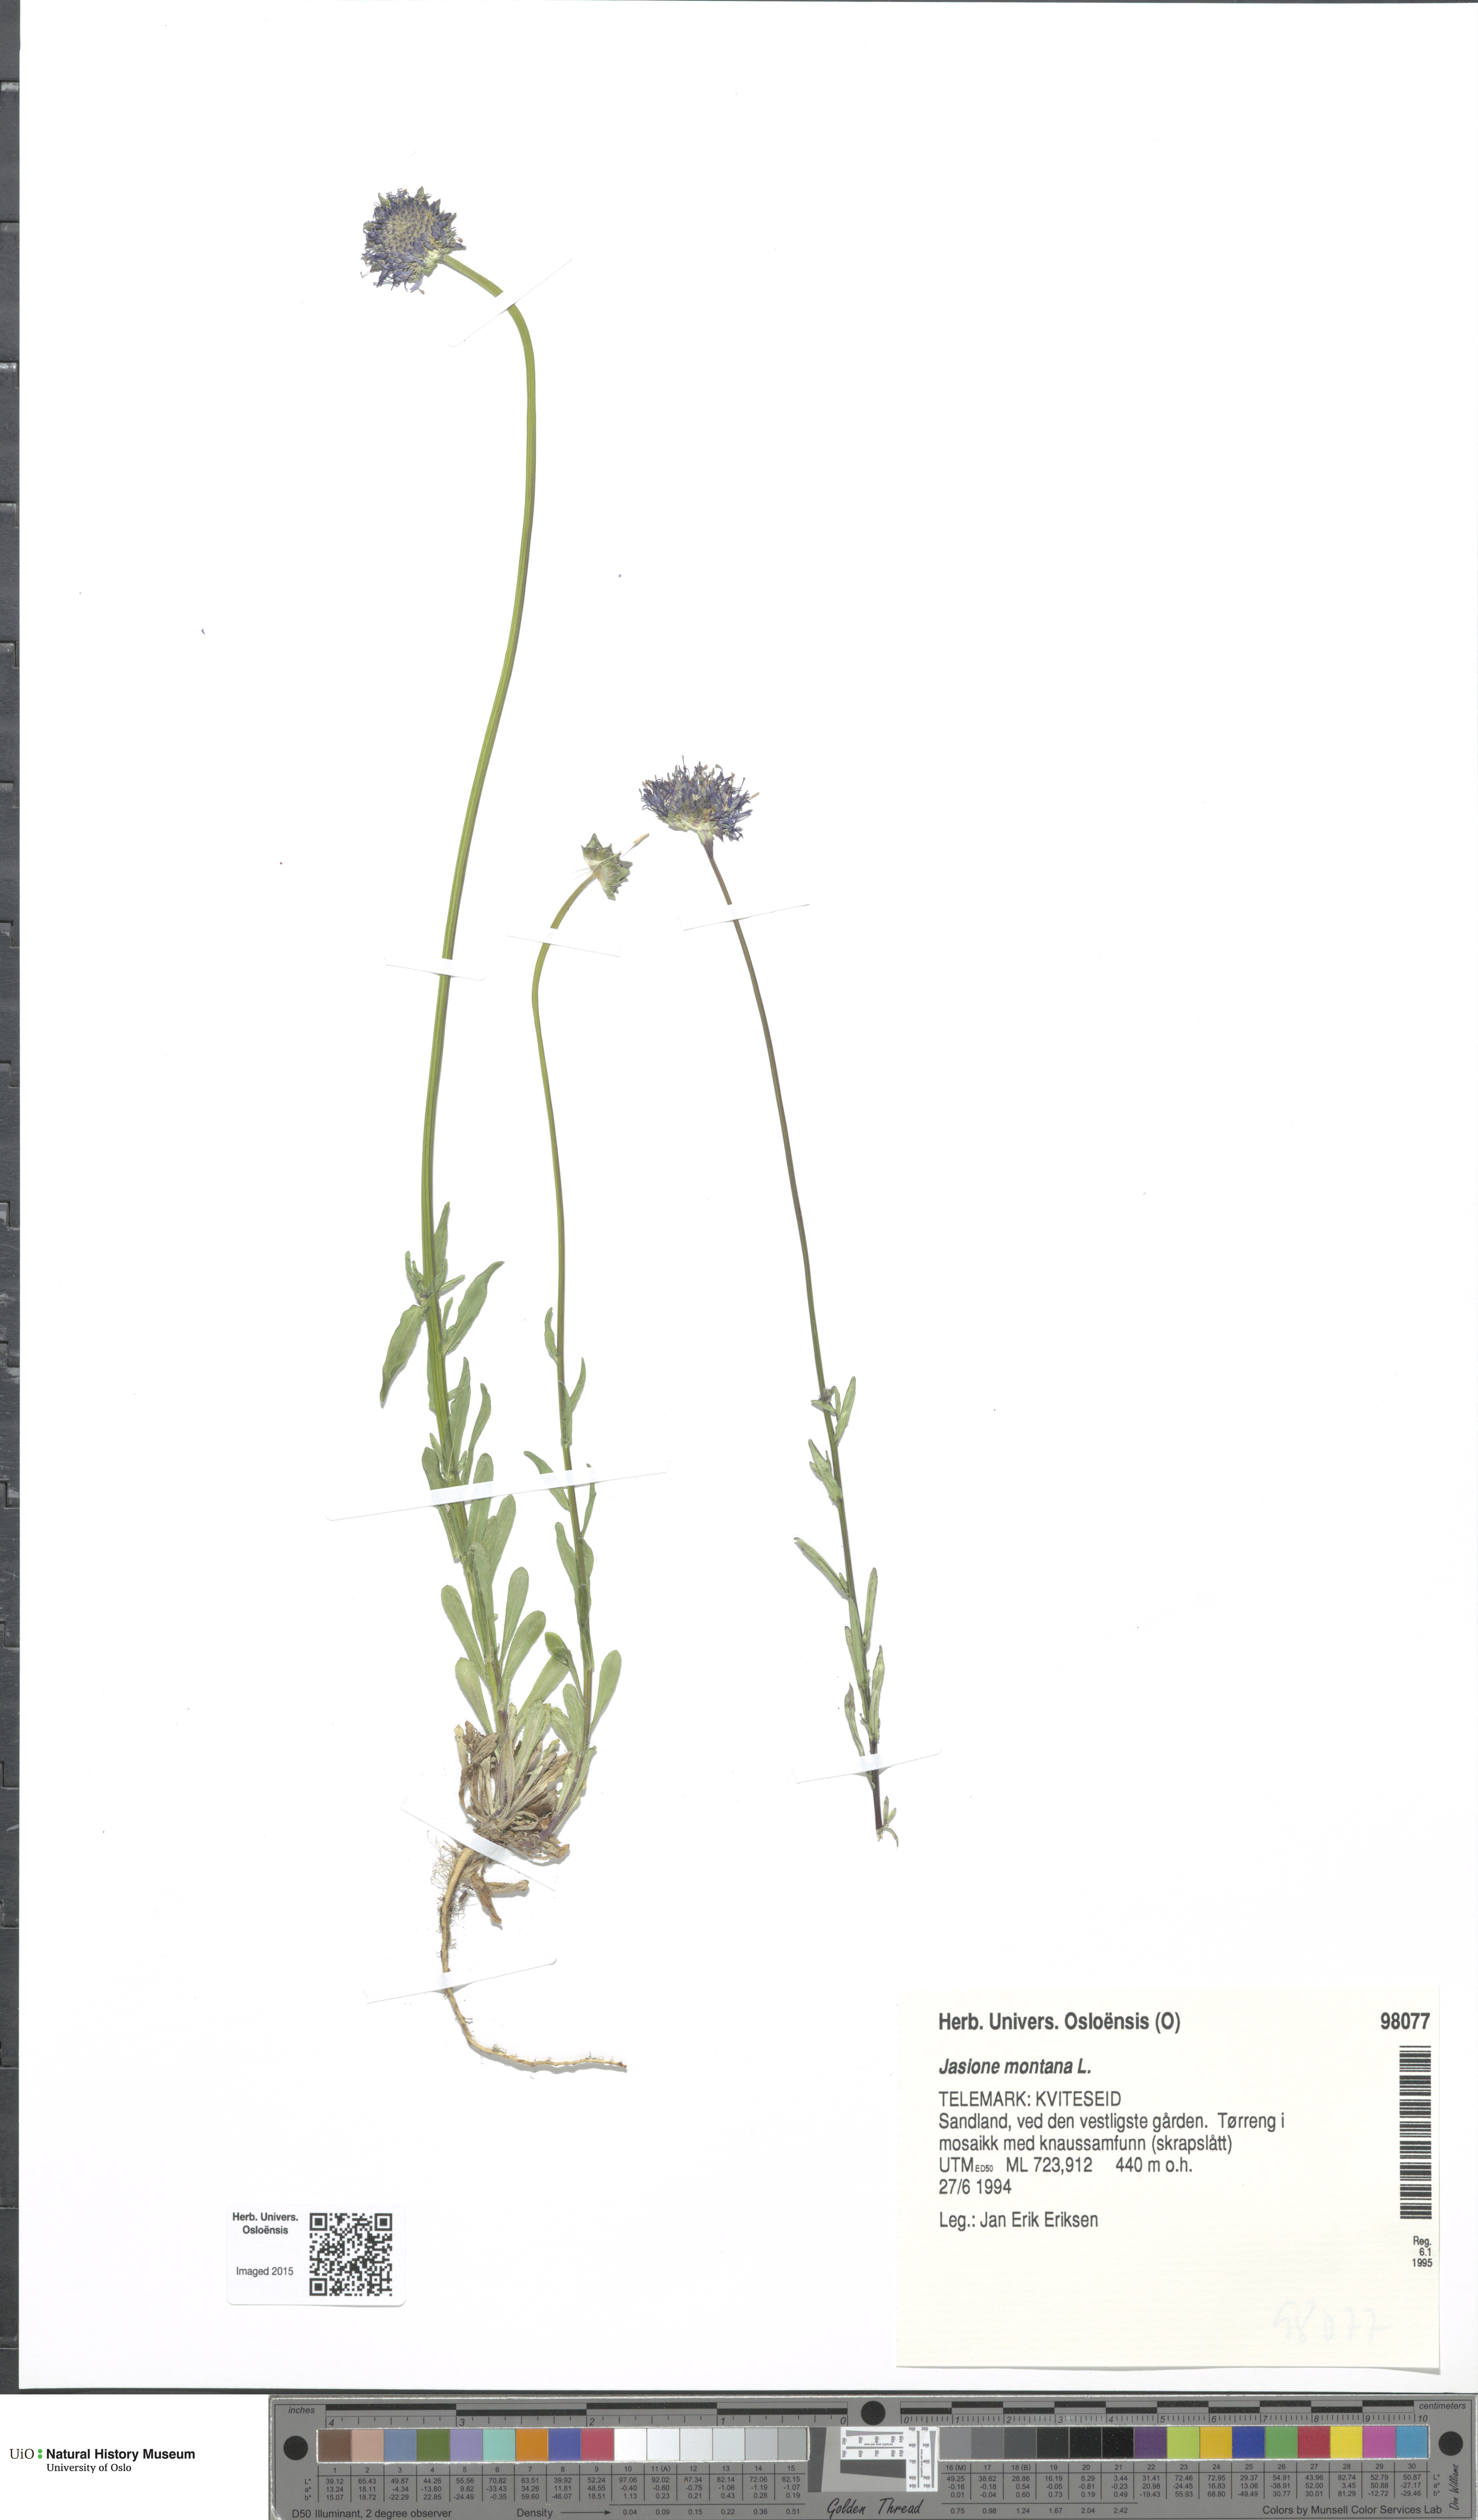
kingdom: Plantae
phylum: Tracheophyta
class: Magnoliopsida
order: Asterales
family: Campanulaceae
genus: Jasione
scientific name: Jasione montana
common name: Sheep's-bit
